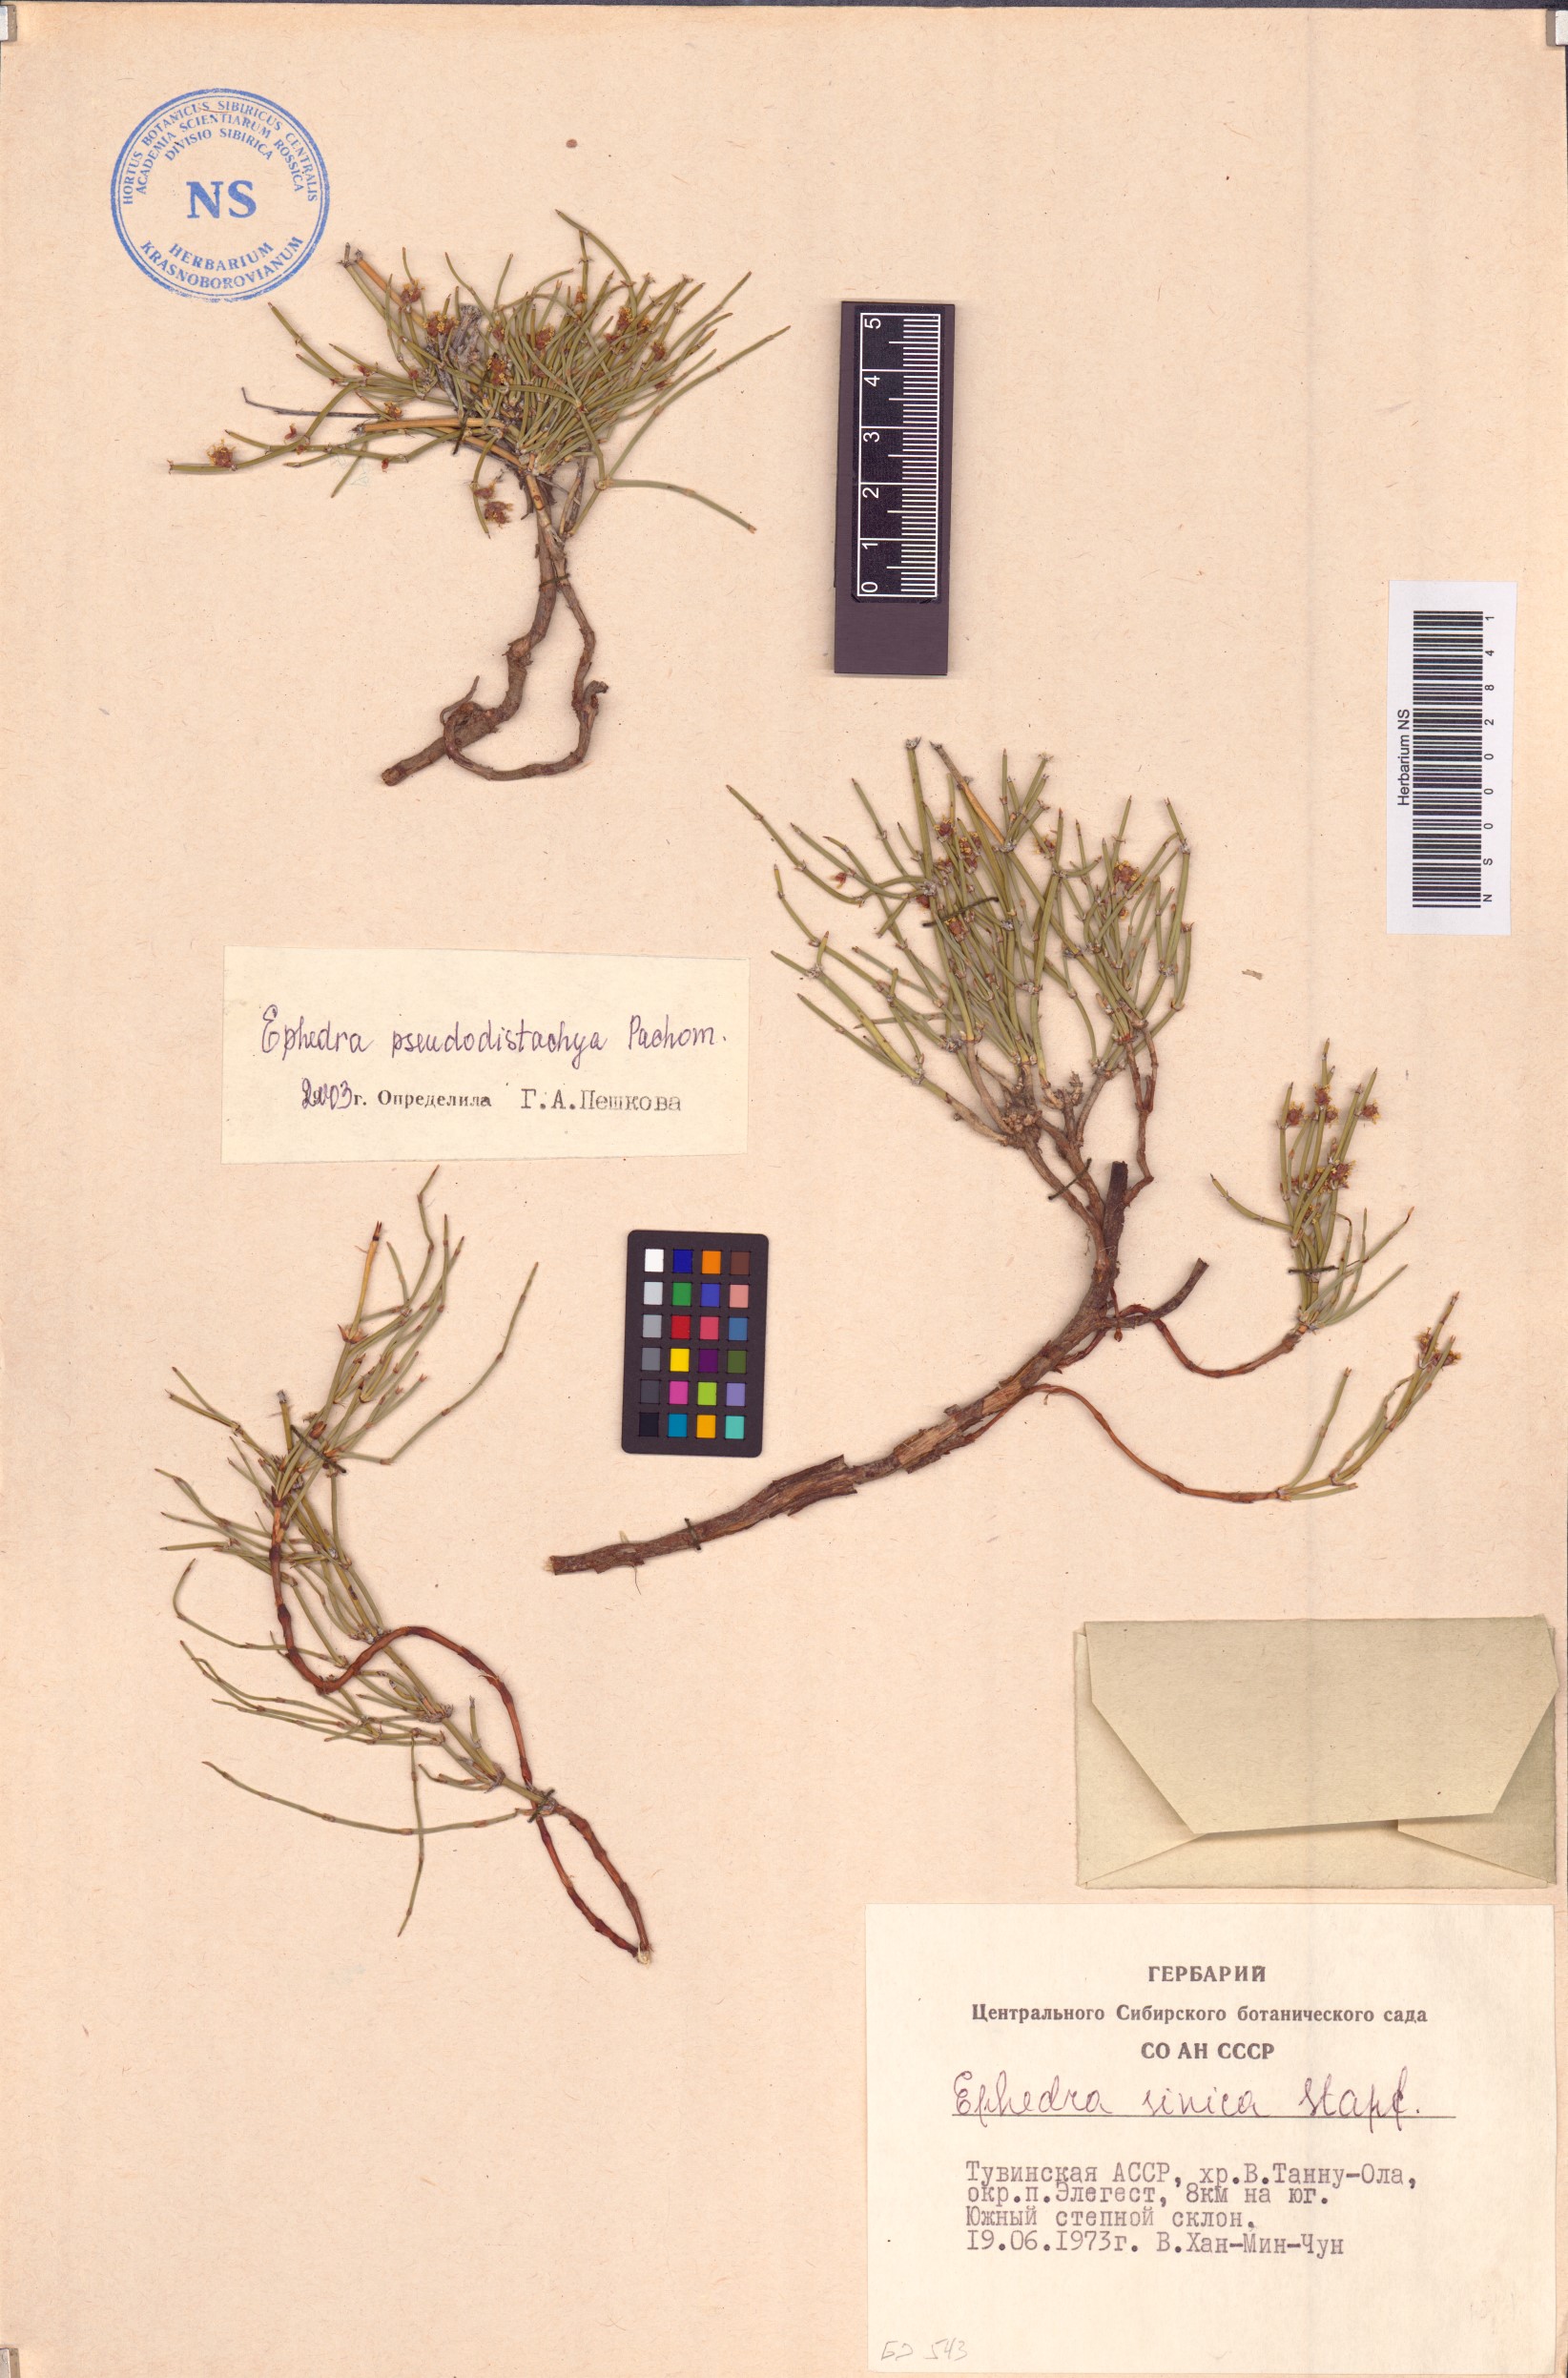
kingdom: Plantae
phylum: Tracheophyta
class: Gnetopsida
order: Ephedrales
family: Ephedraceae
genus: Ephedra
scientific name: Ephedra pseudodistachya
